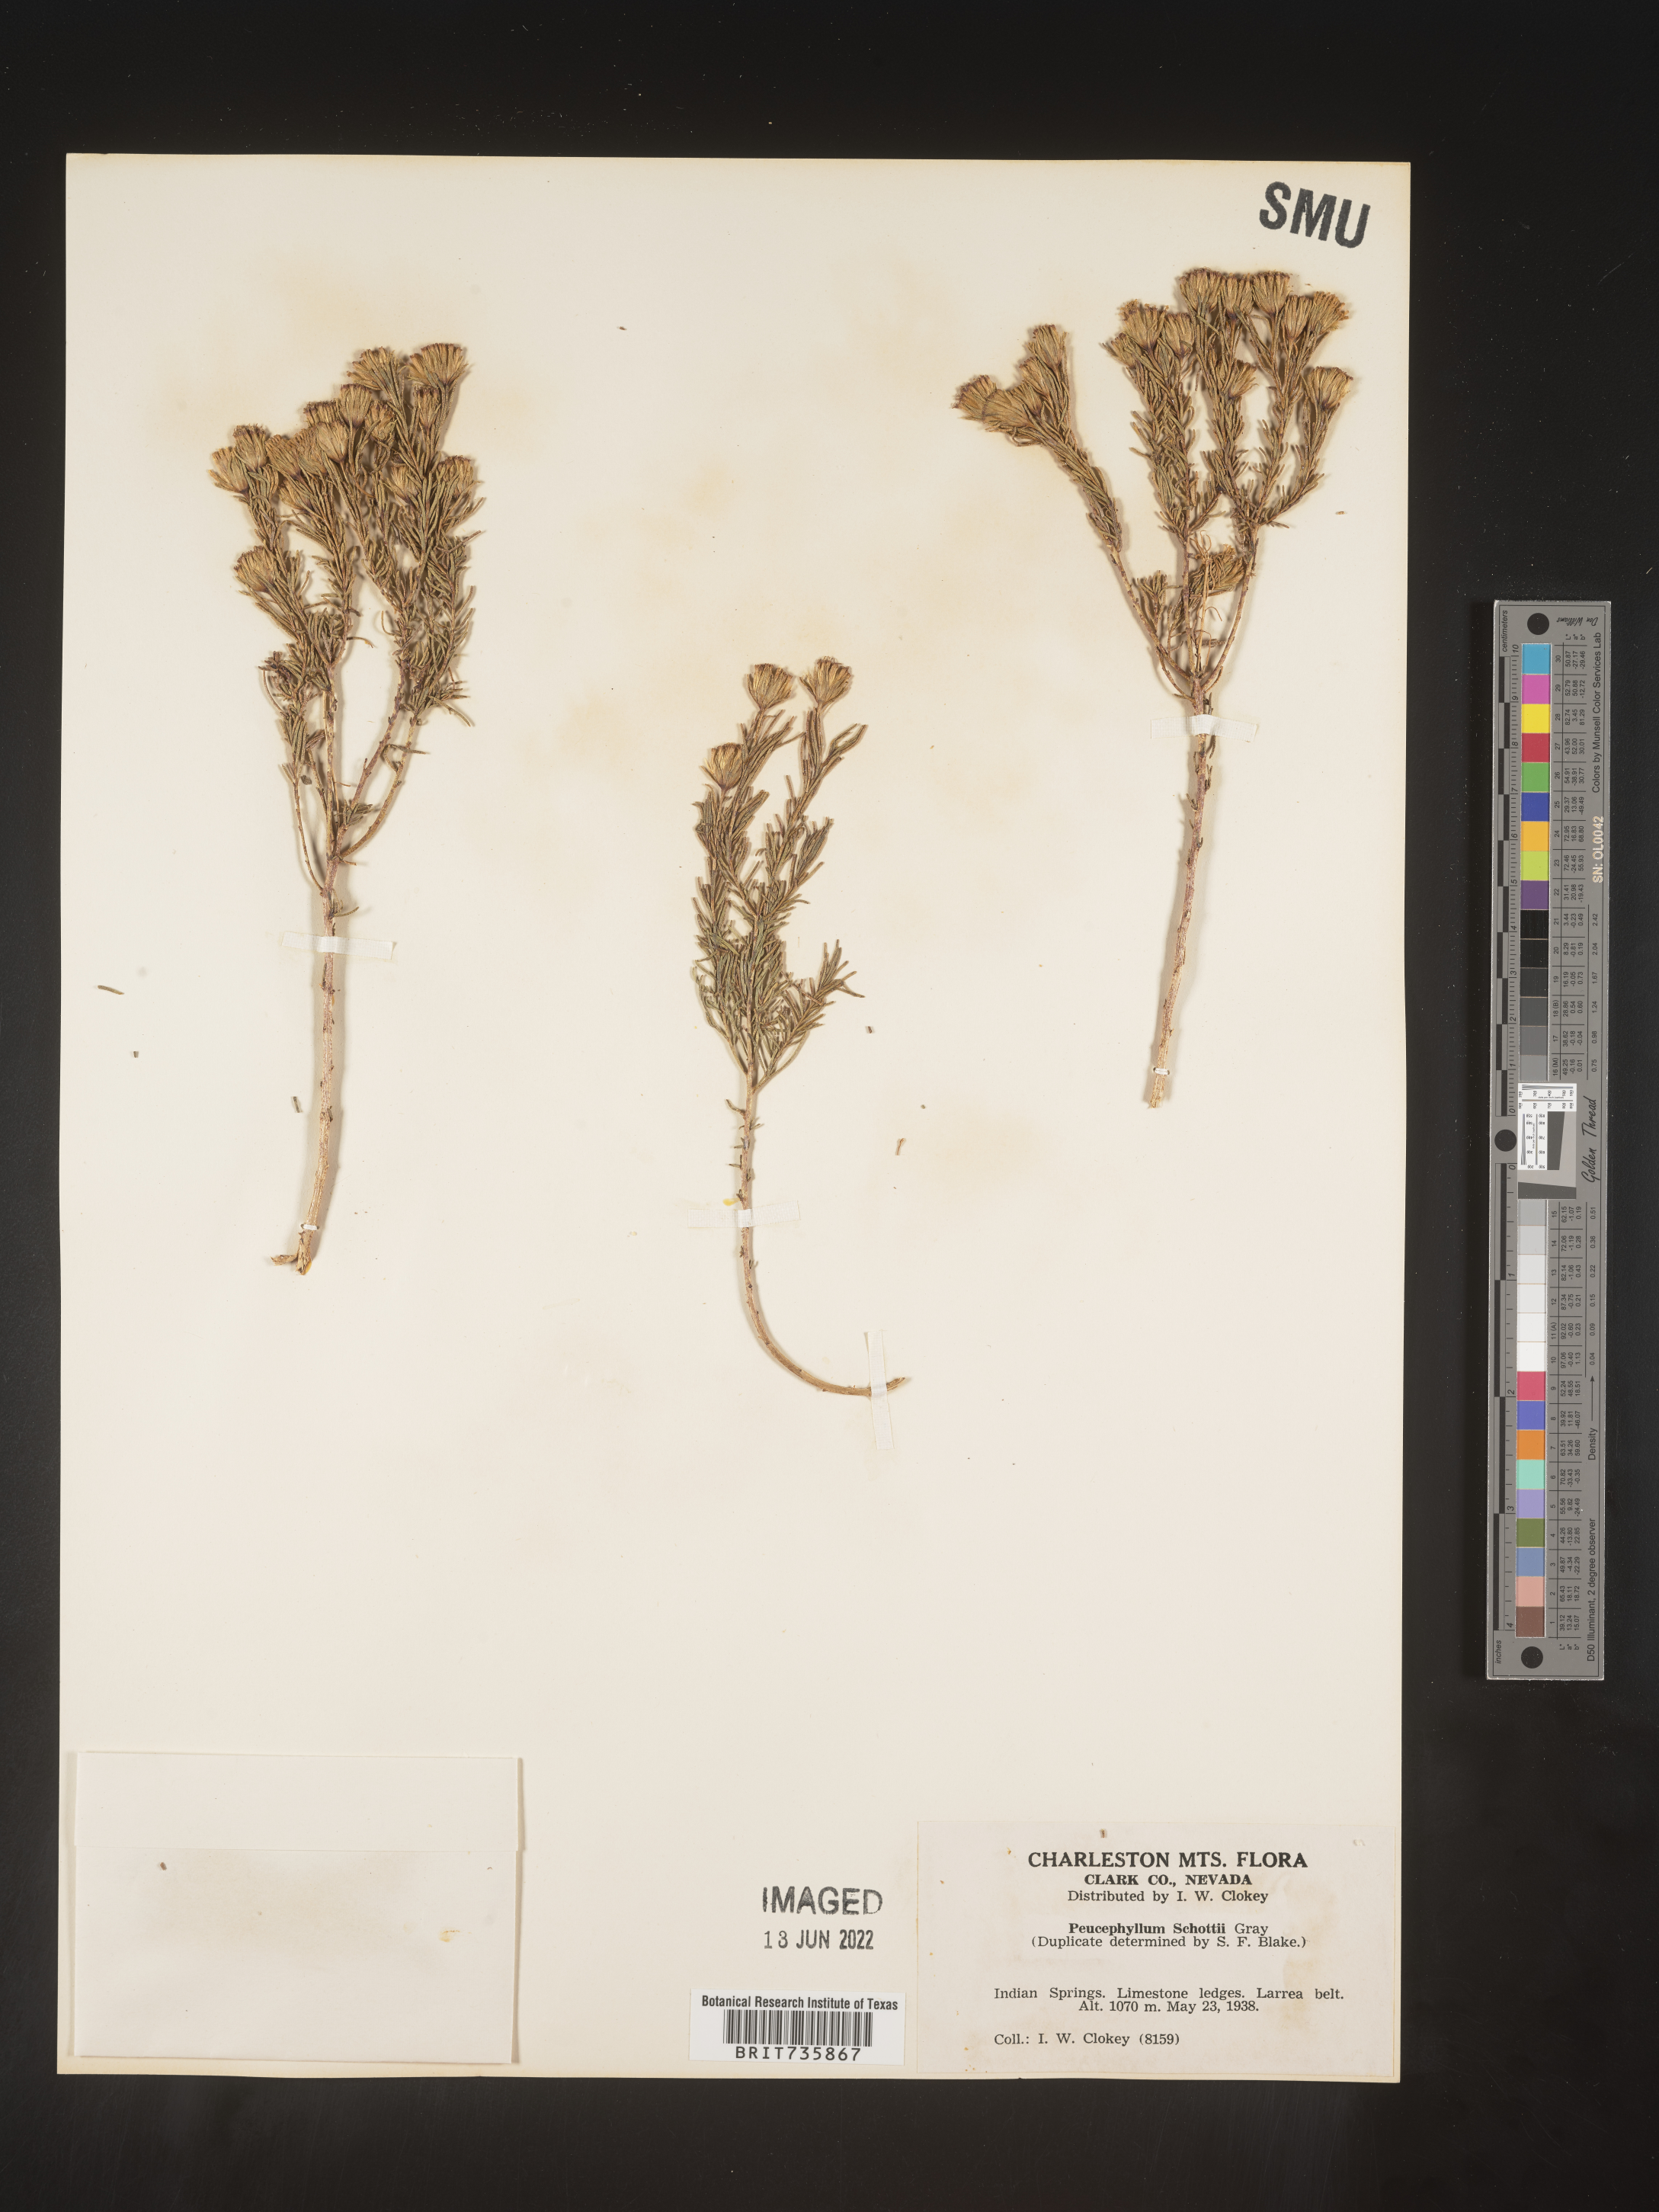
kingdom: Plantae
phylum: Tracheophyta
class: Magnoliopsida
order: Asterales
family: Asteraceae
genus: Peucephyllum
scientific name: Peucephyllum
